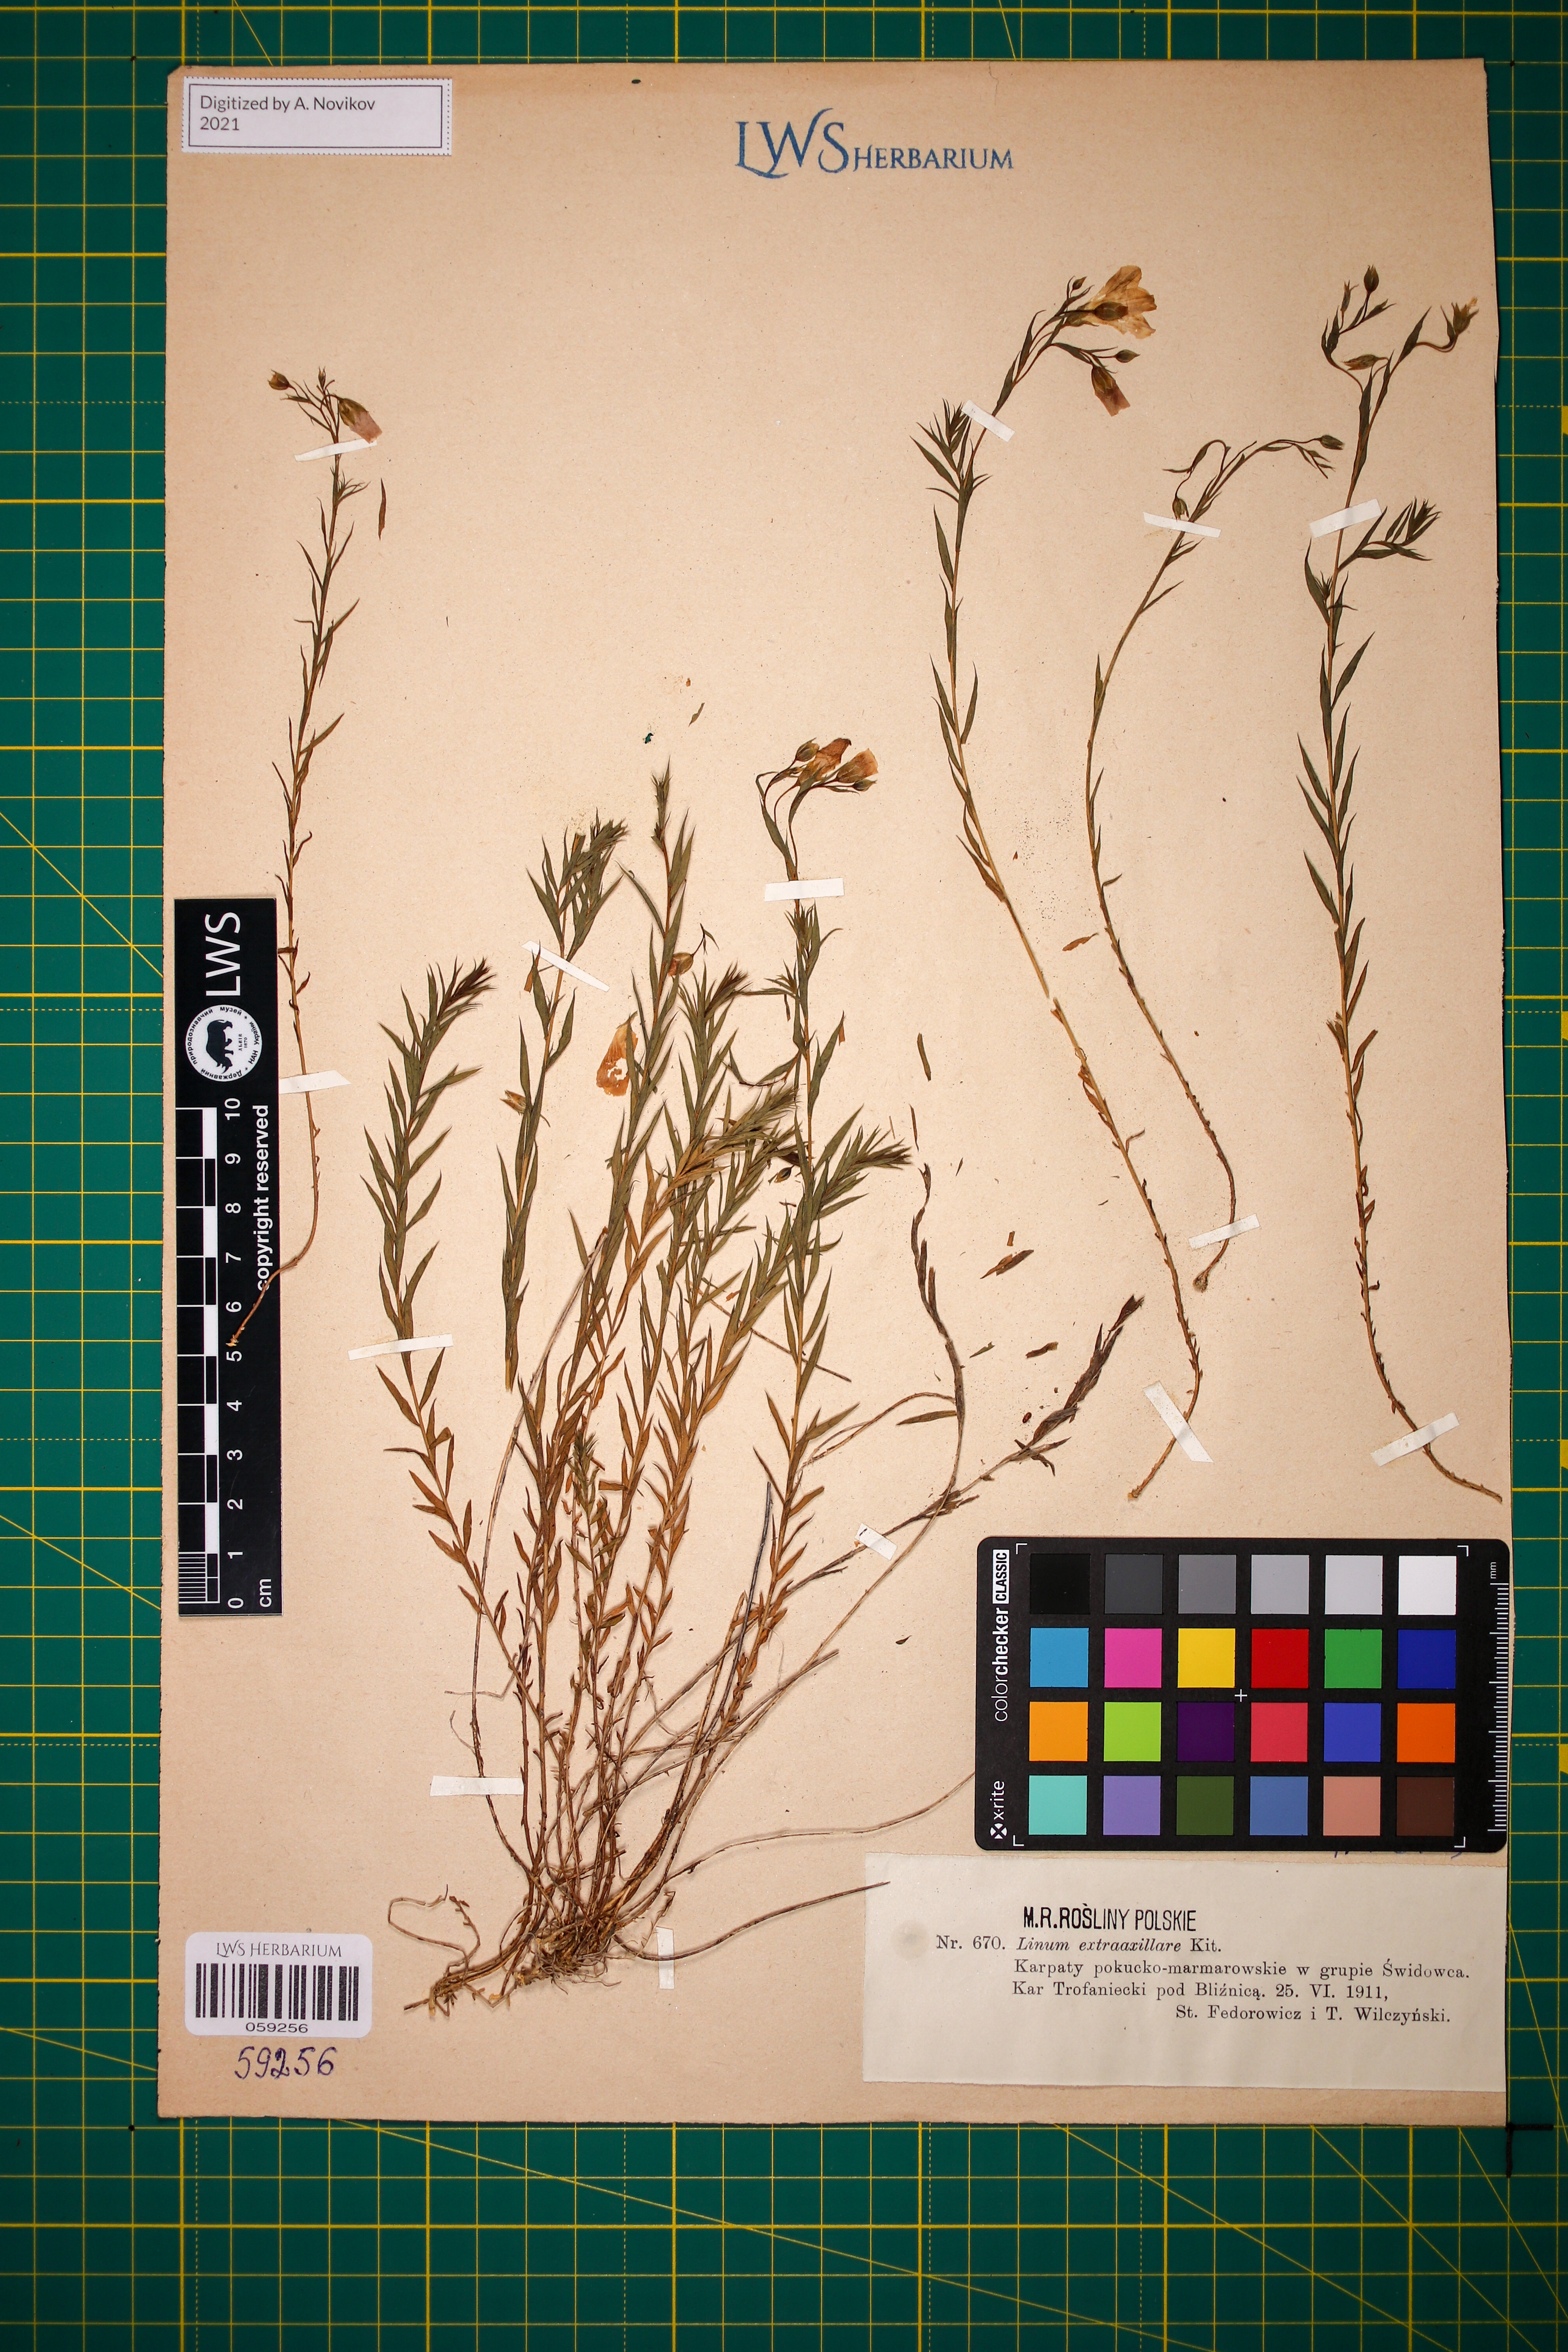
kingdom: Plantae
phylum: Tracheophyta
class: Magnoliopsida
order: Malpighiales
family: Linaceae
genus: Linum
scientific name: Linum perenne
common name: Blue flax
